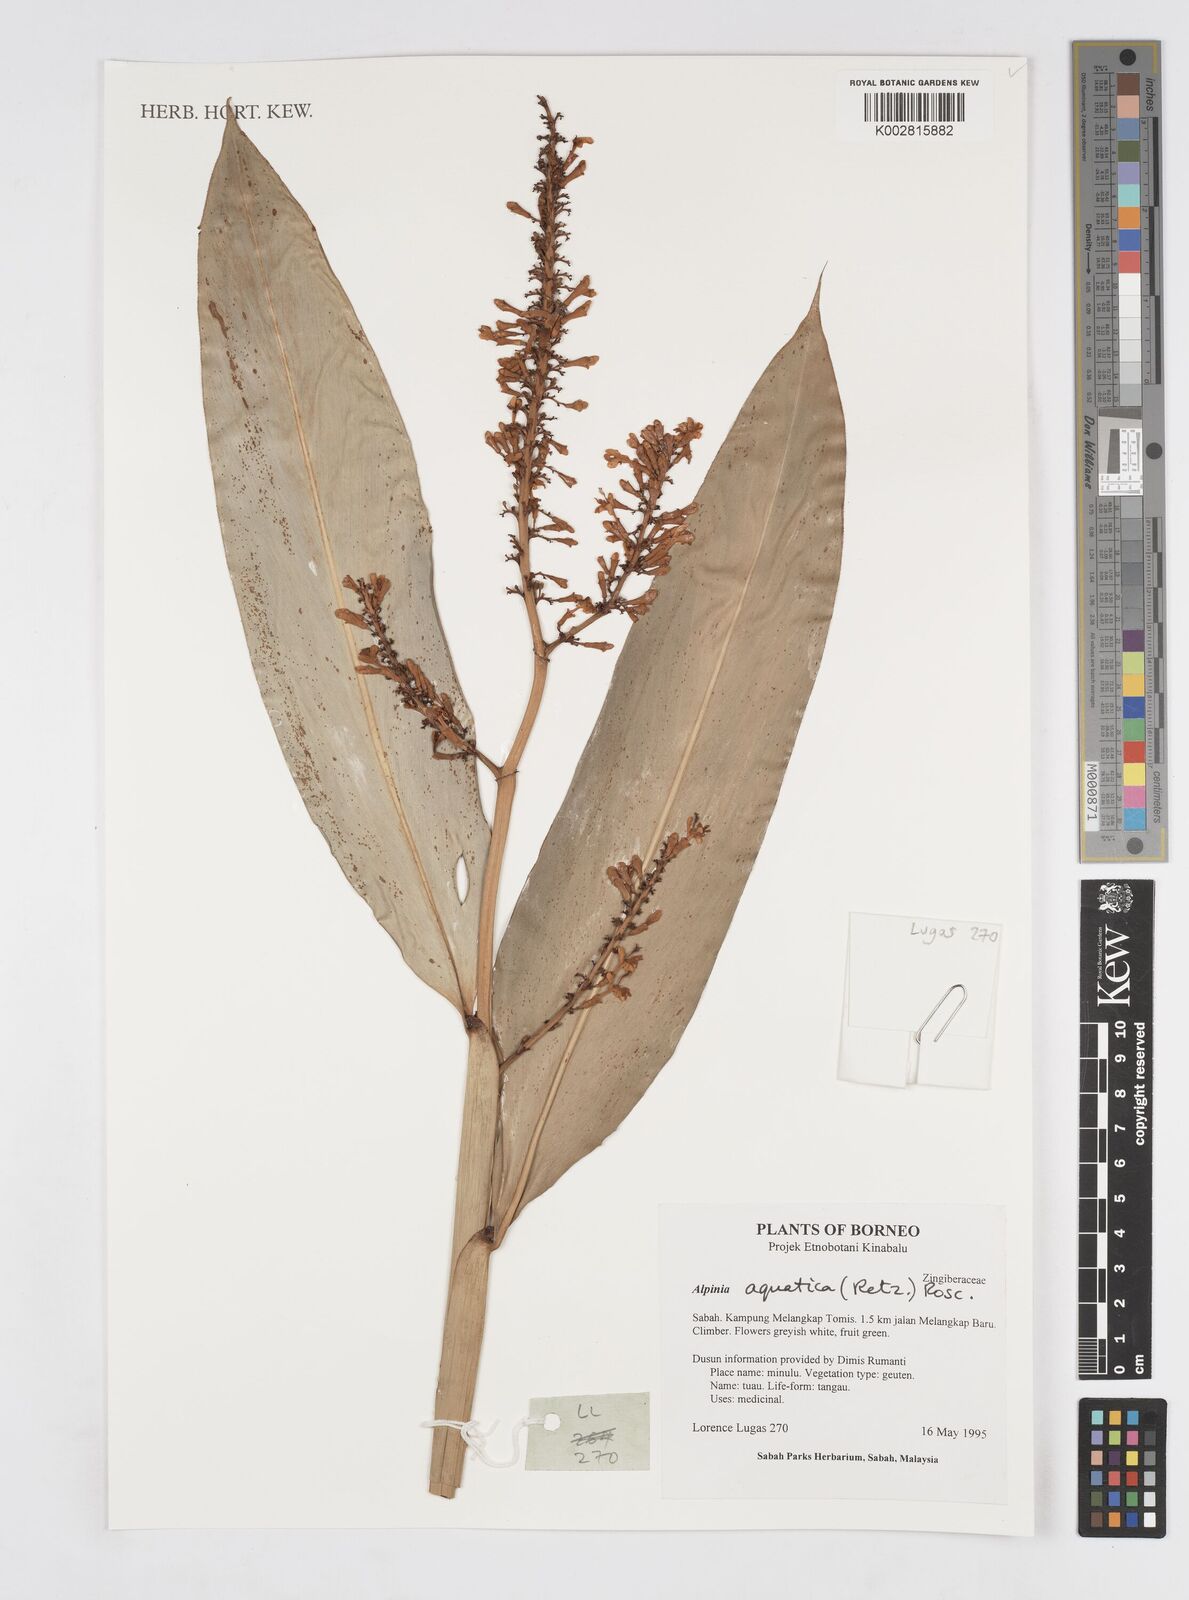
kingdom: Plantae
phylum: Tracheophyta
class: Liliopsida
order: Zingiberales
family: Zingiberaceae
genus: Alpinia
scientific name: Alpinia aquatica
